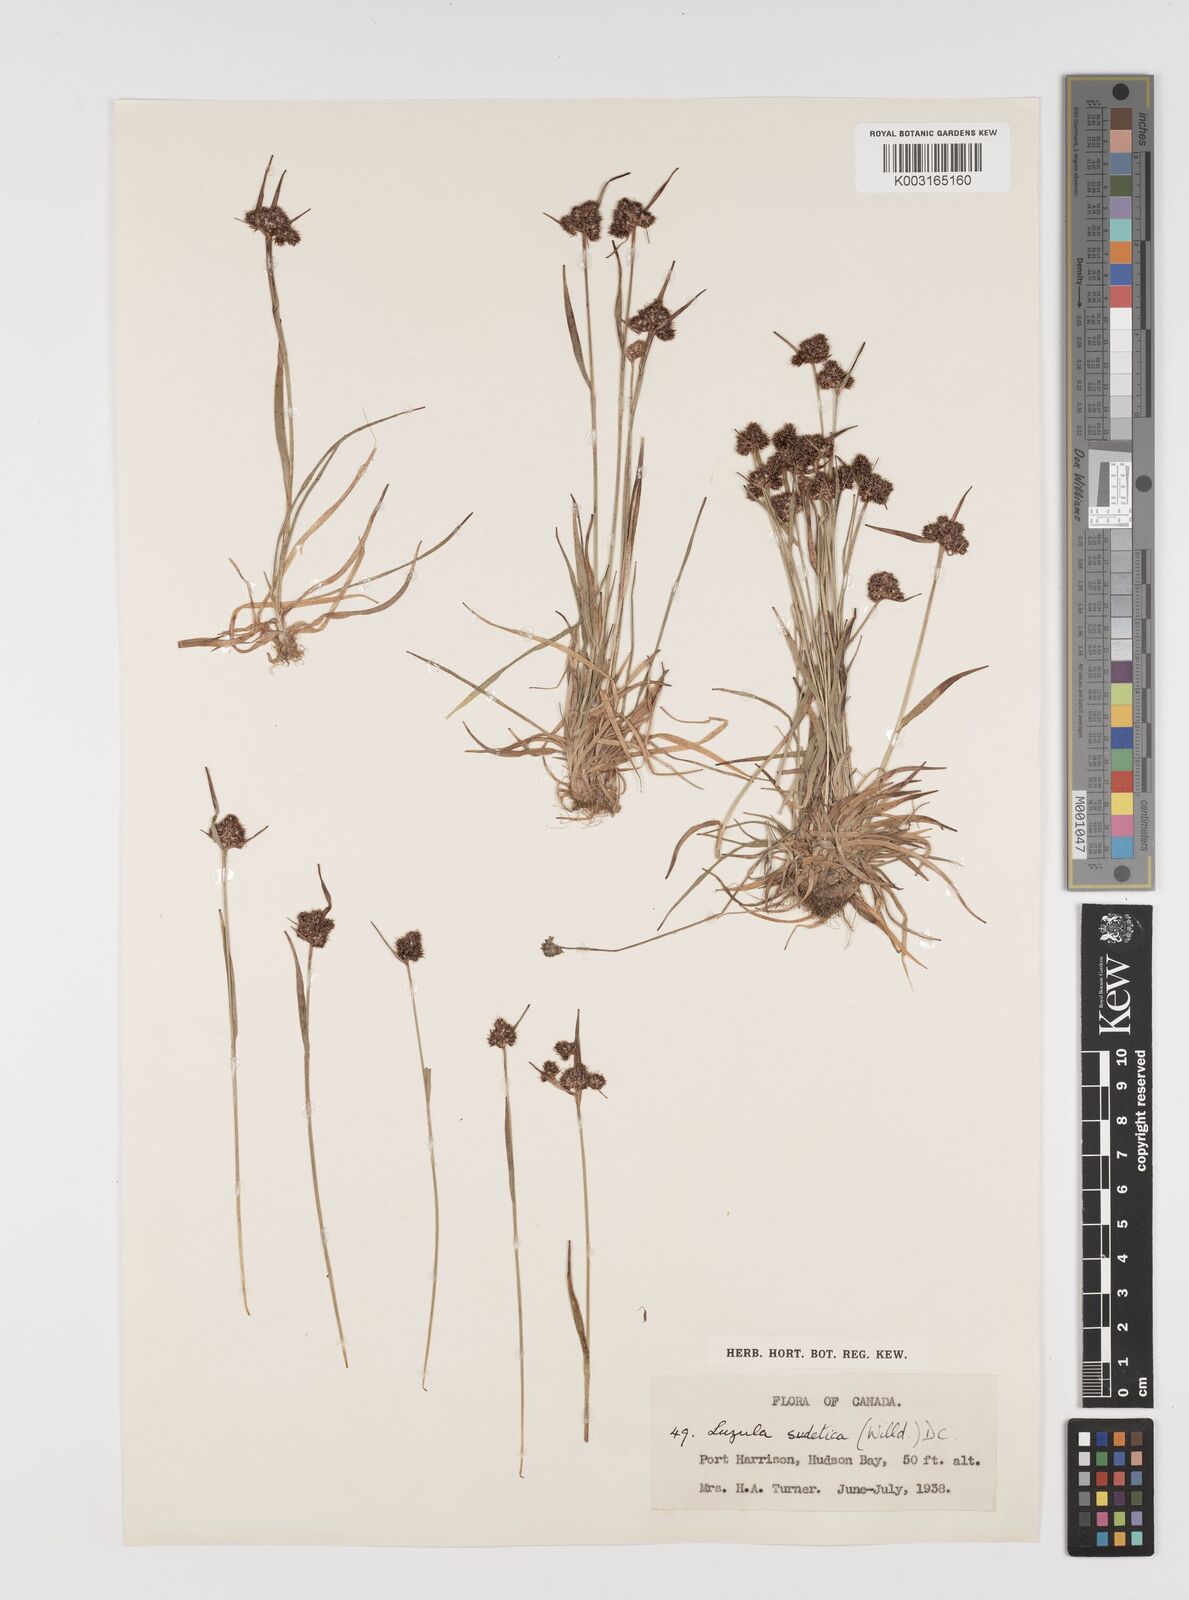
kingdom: Plantae
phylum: Tracheophyta
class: Liliopsida
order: Poales
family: Juncaceae
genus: Luzula
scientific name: Luzula sudetica
